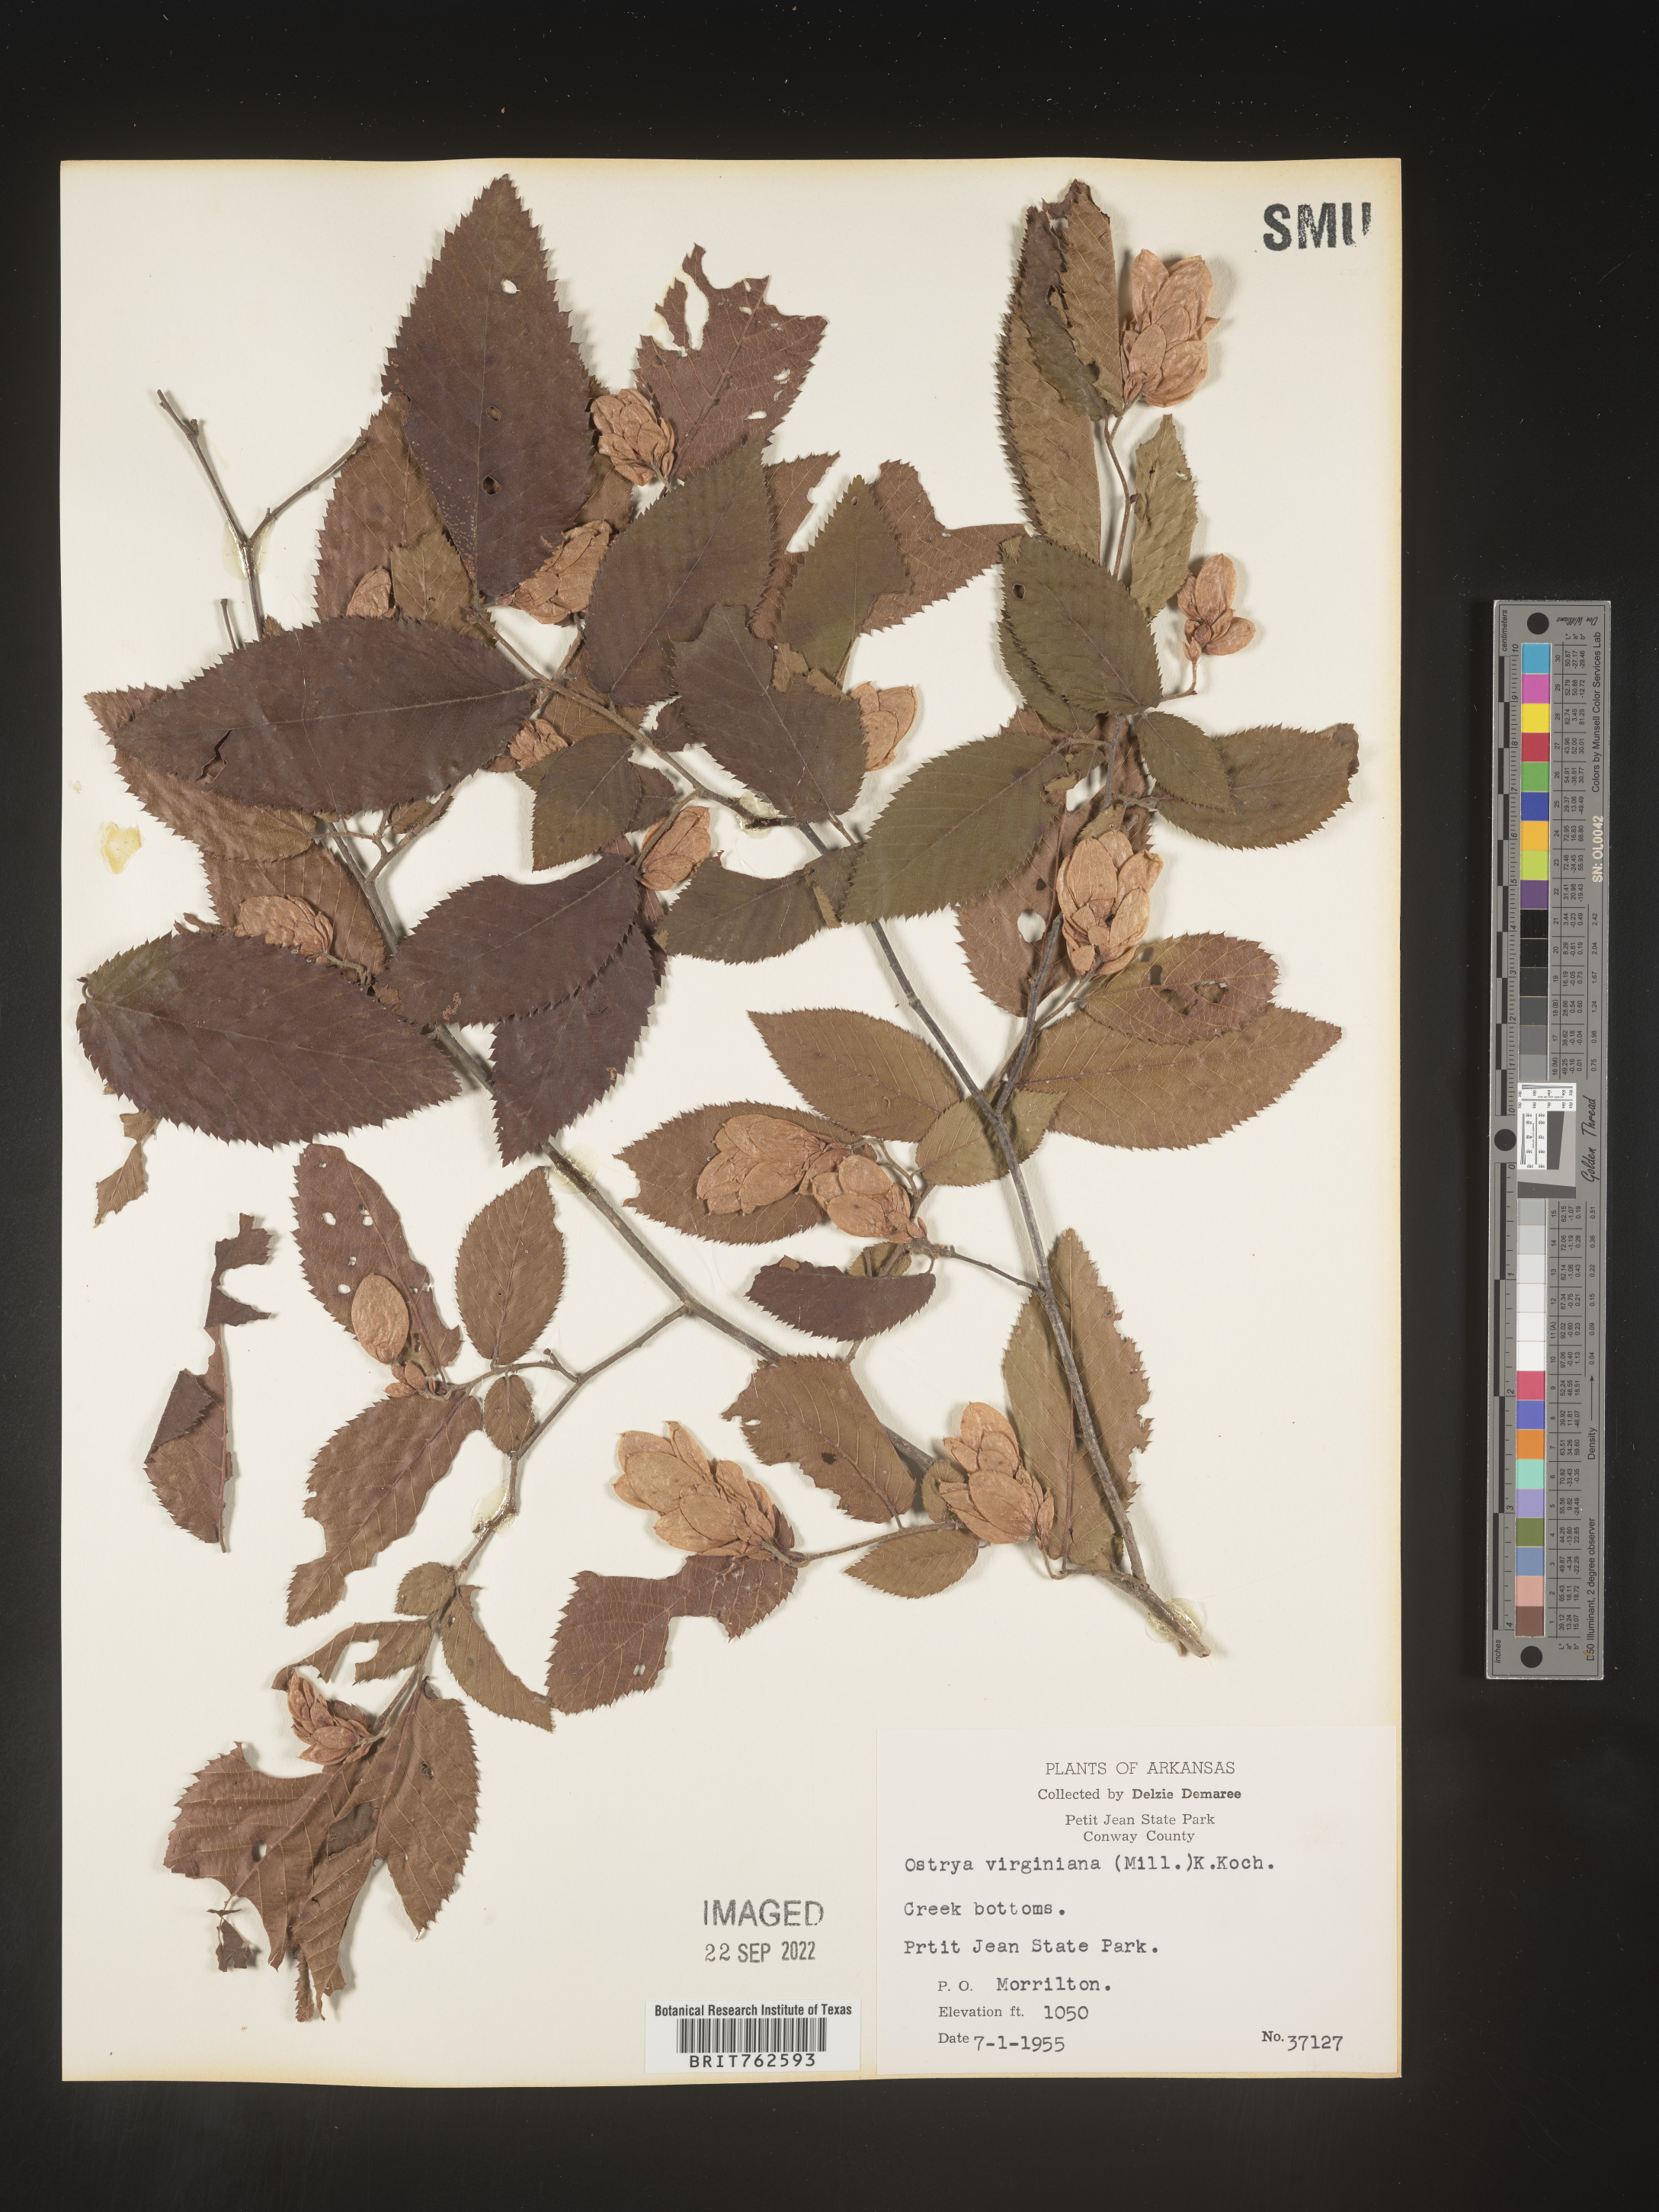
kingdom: Plantae
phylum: Tracheophyta
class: Magnoliopsida
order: Fagales
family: Betulaceae
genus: Ostrya
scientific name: Ostrya virginiana
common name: Ironwood
